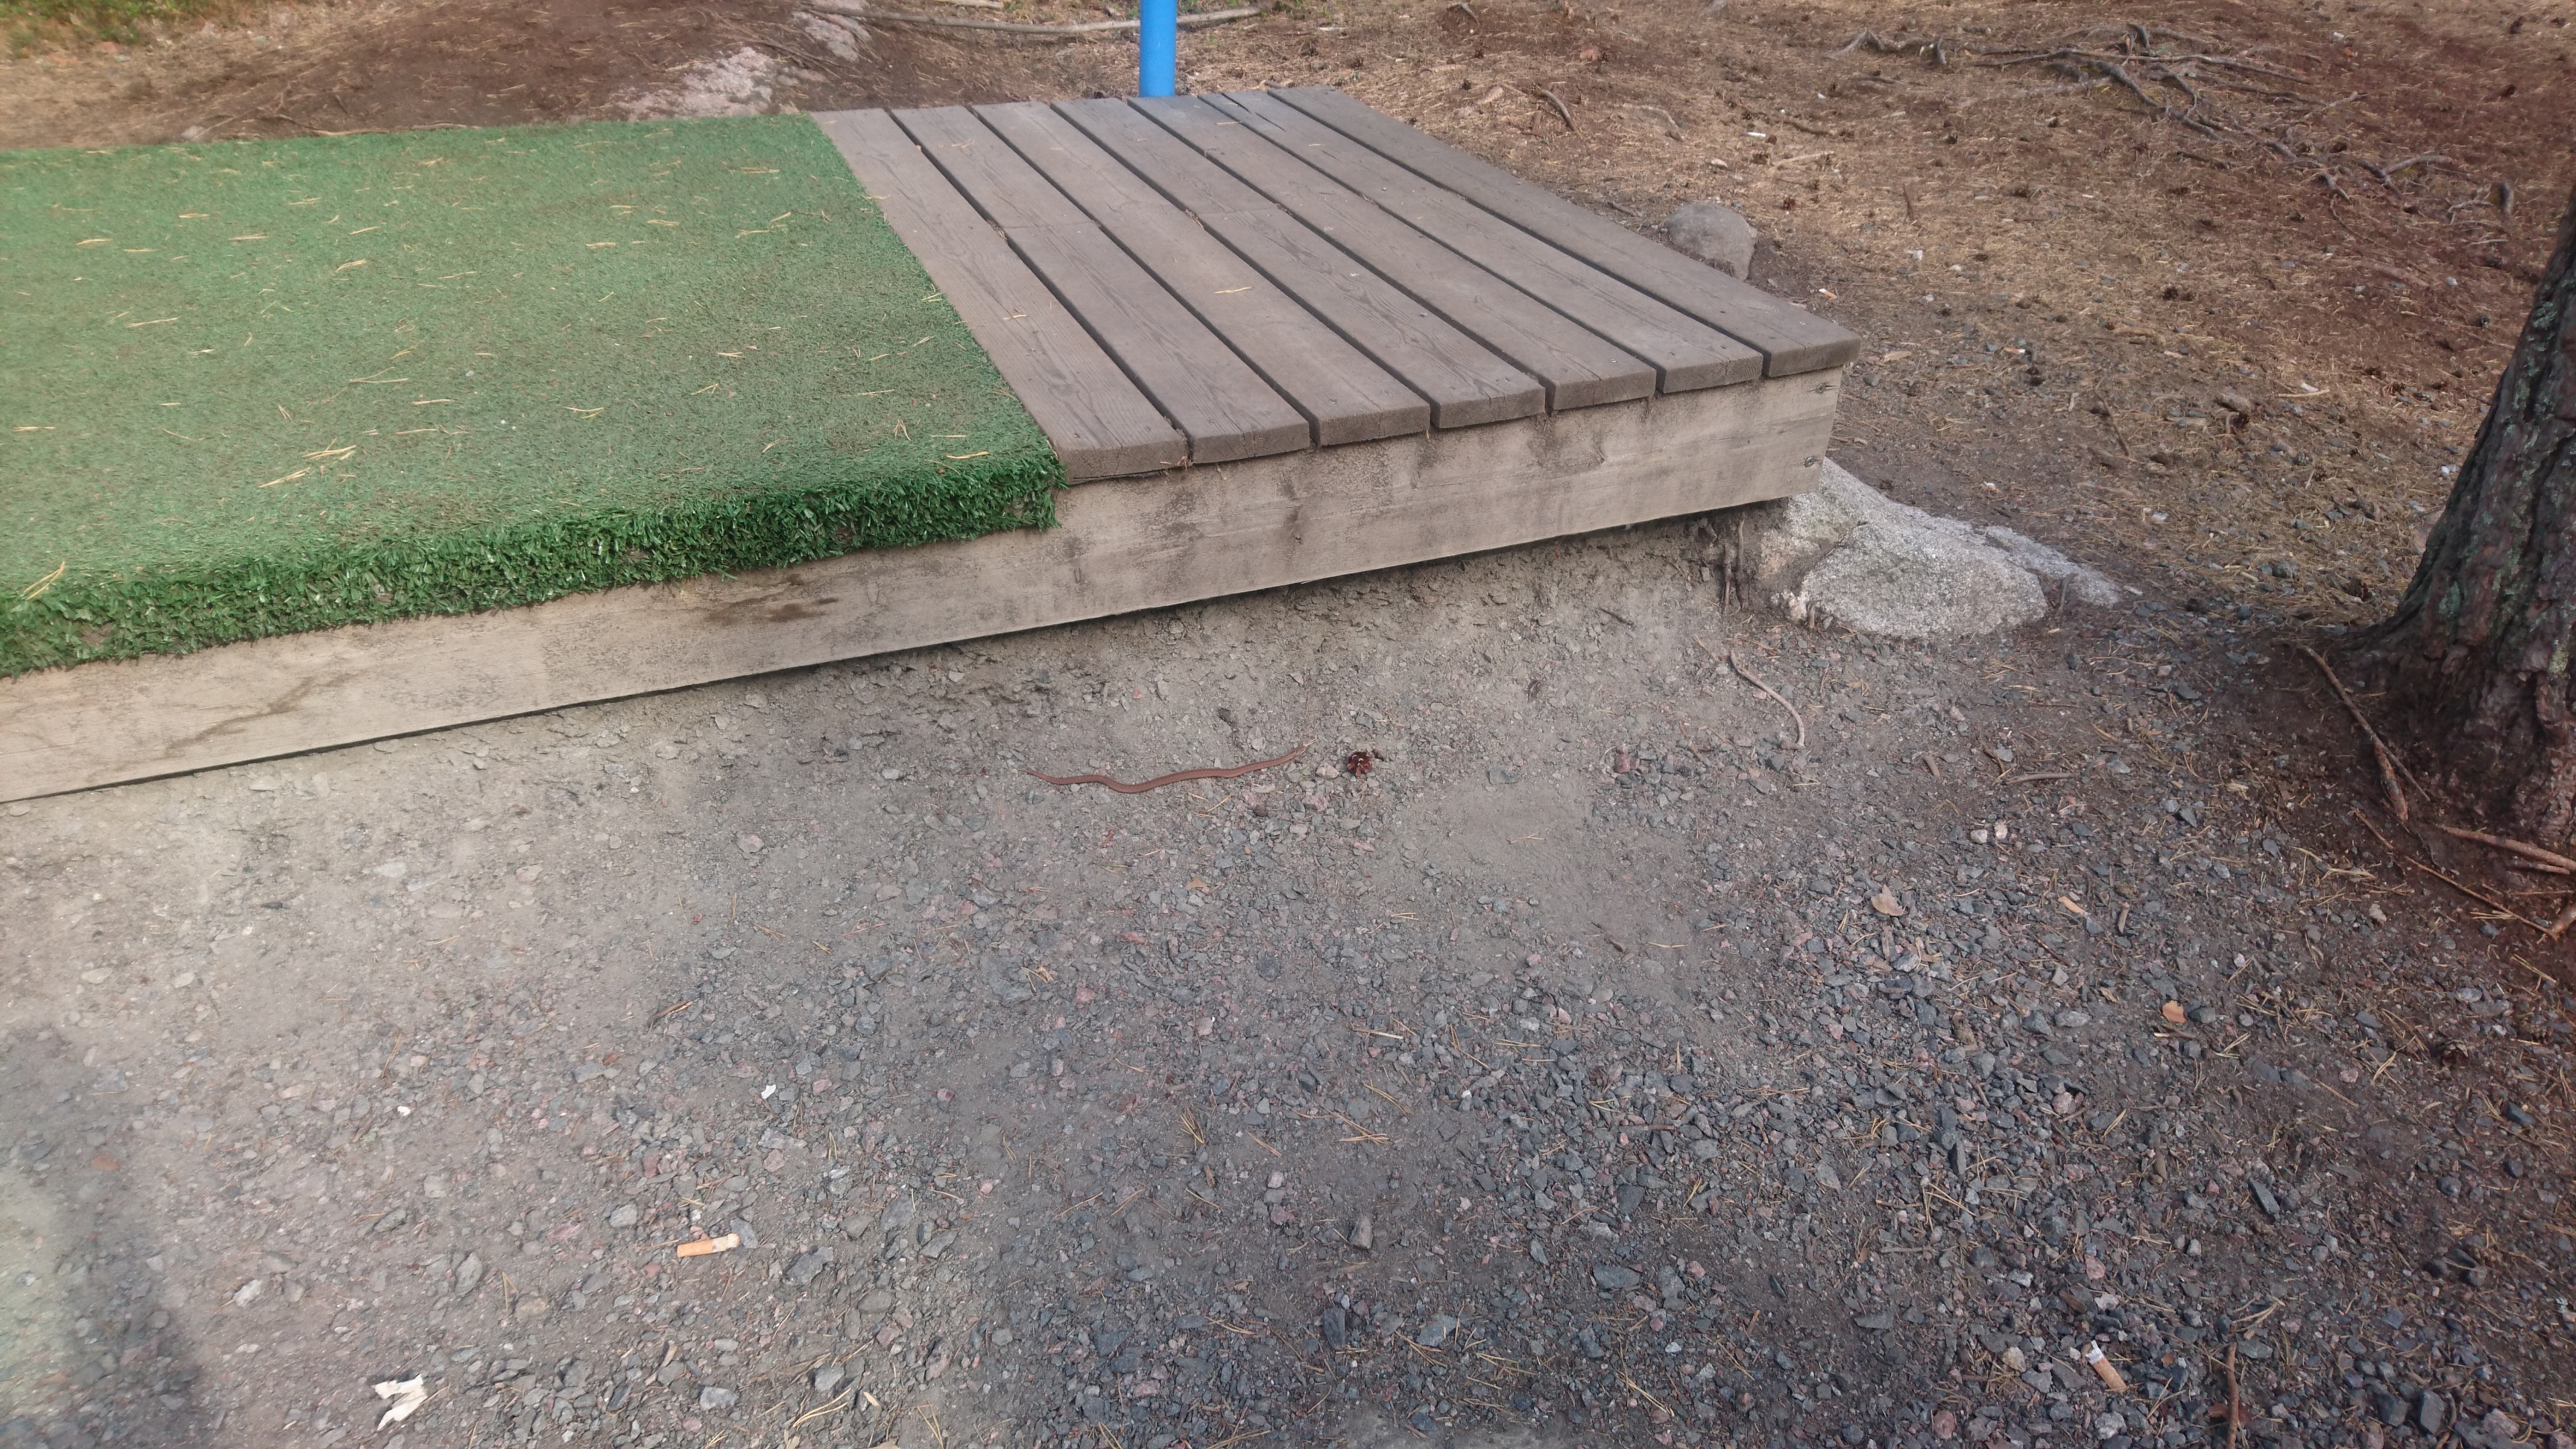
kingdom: Animalia
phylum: Chordata
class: Squamata
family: Viperidae
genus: Vipera
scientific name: Vipera berus
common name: Adder
